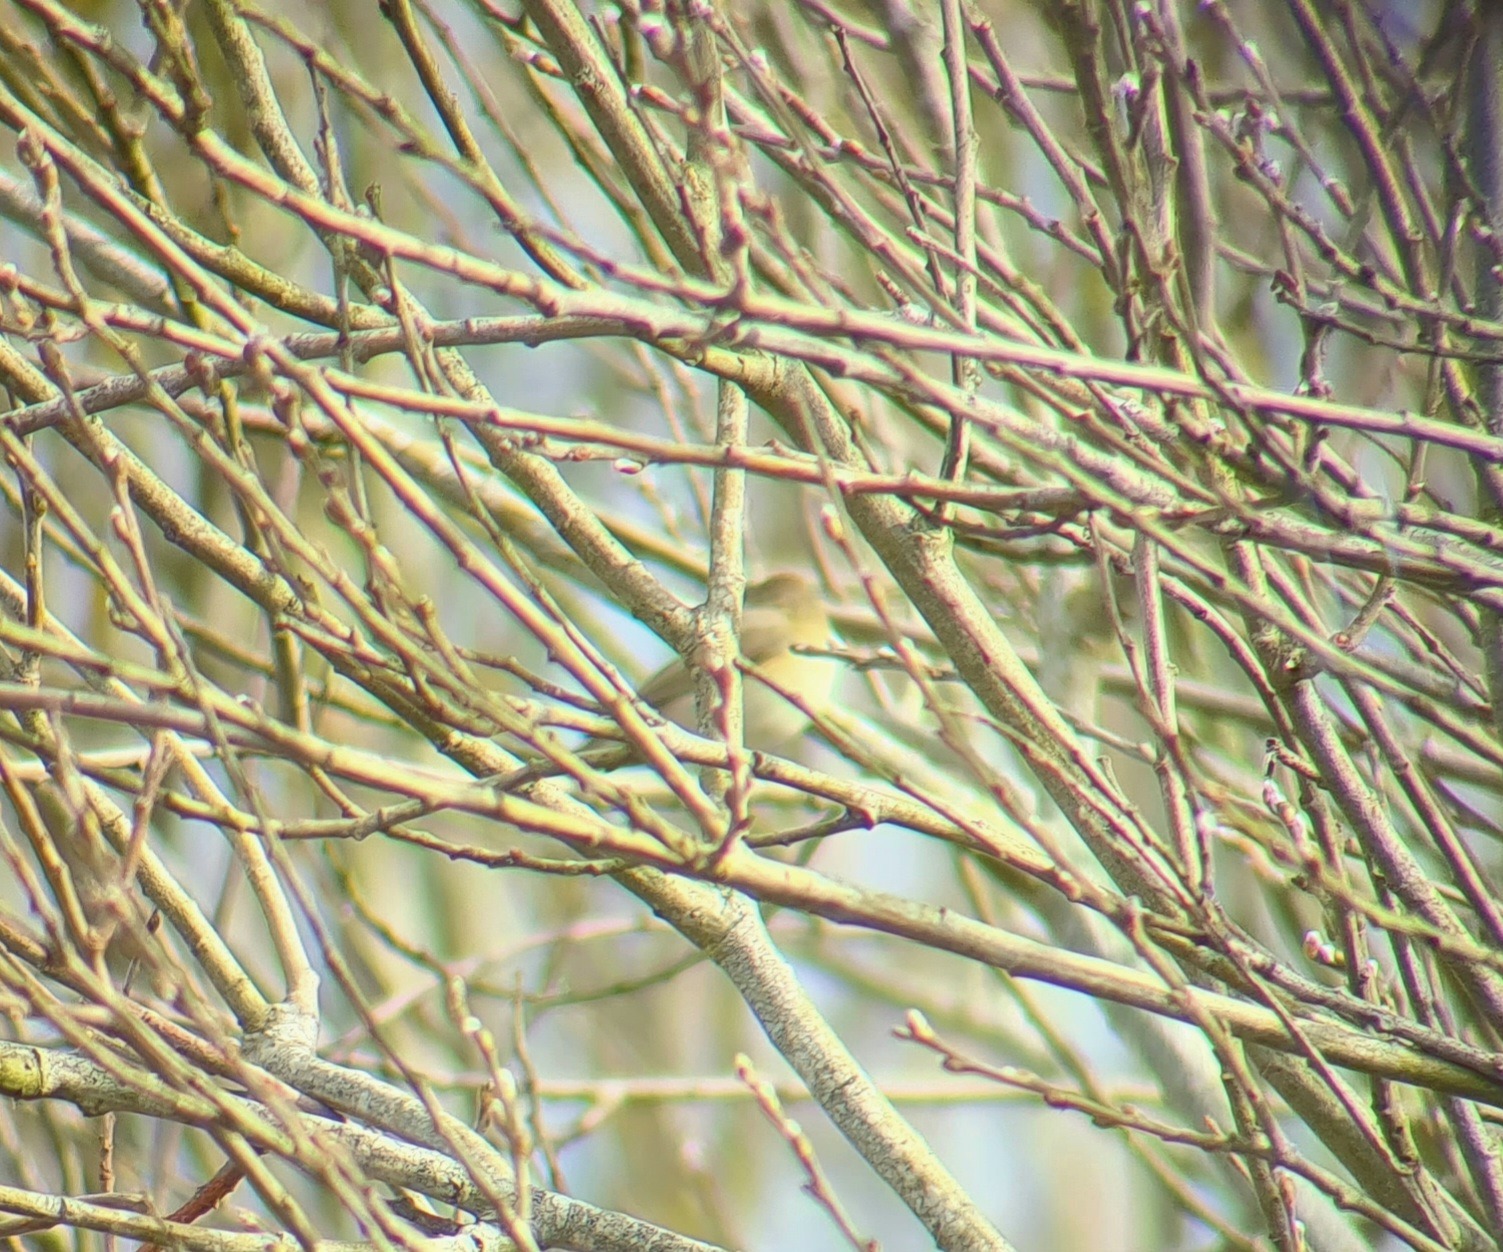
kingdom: Animalia
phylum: Chordata
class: Aves
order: Passeriformes
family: Phylloscopidae
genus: Phylloscopus
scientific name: Phylloscopus collybita
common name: Gransanger
